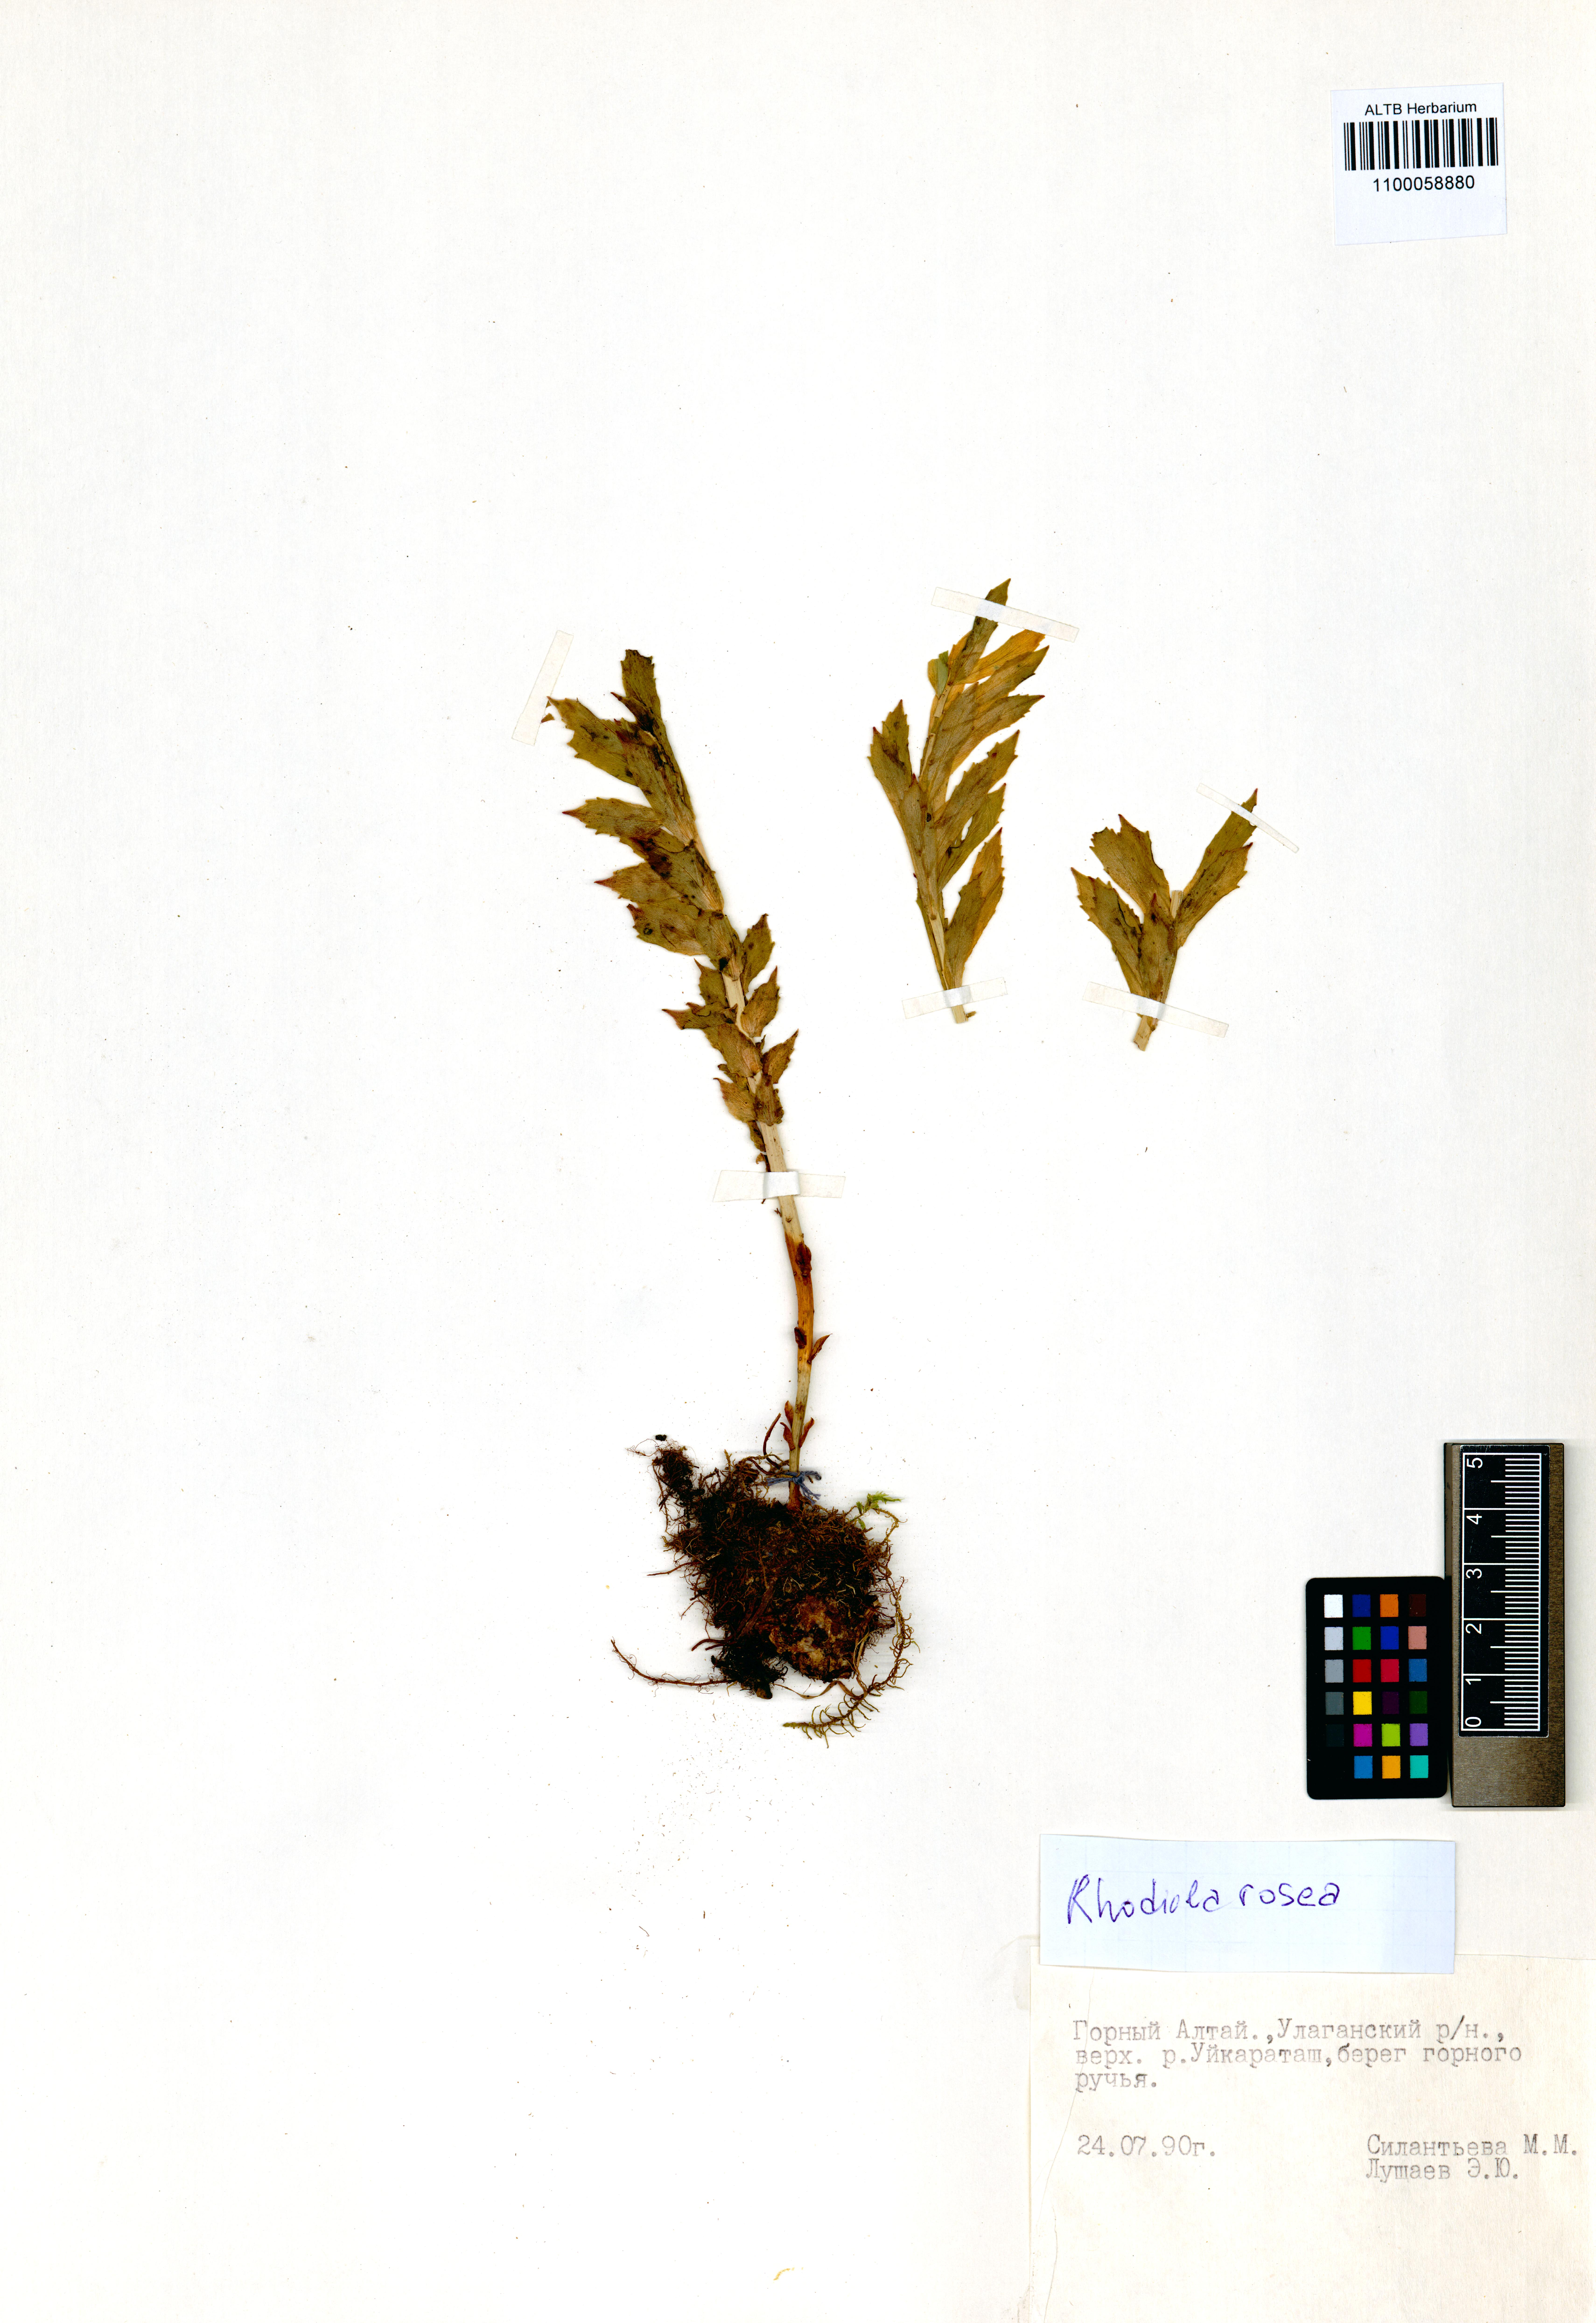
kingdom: Plantae
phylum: Tracheophyta
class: Magnoliopsida
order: Saxifragales
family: Crassulaceae
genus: Rhodiola
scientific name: Rhodiola rosea
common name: Roseroot
